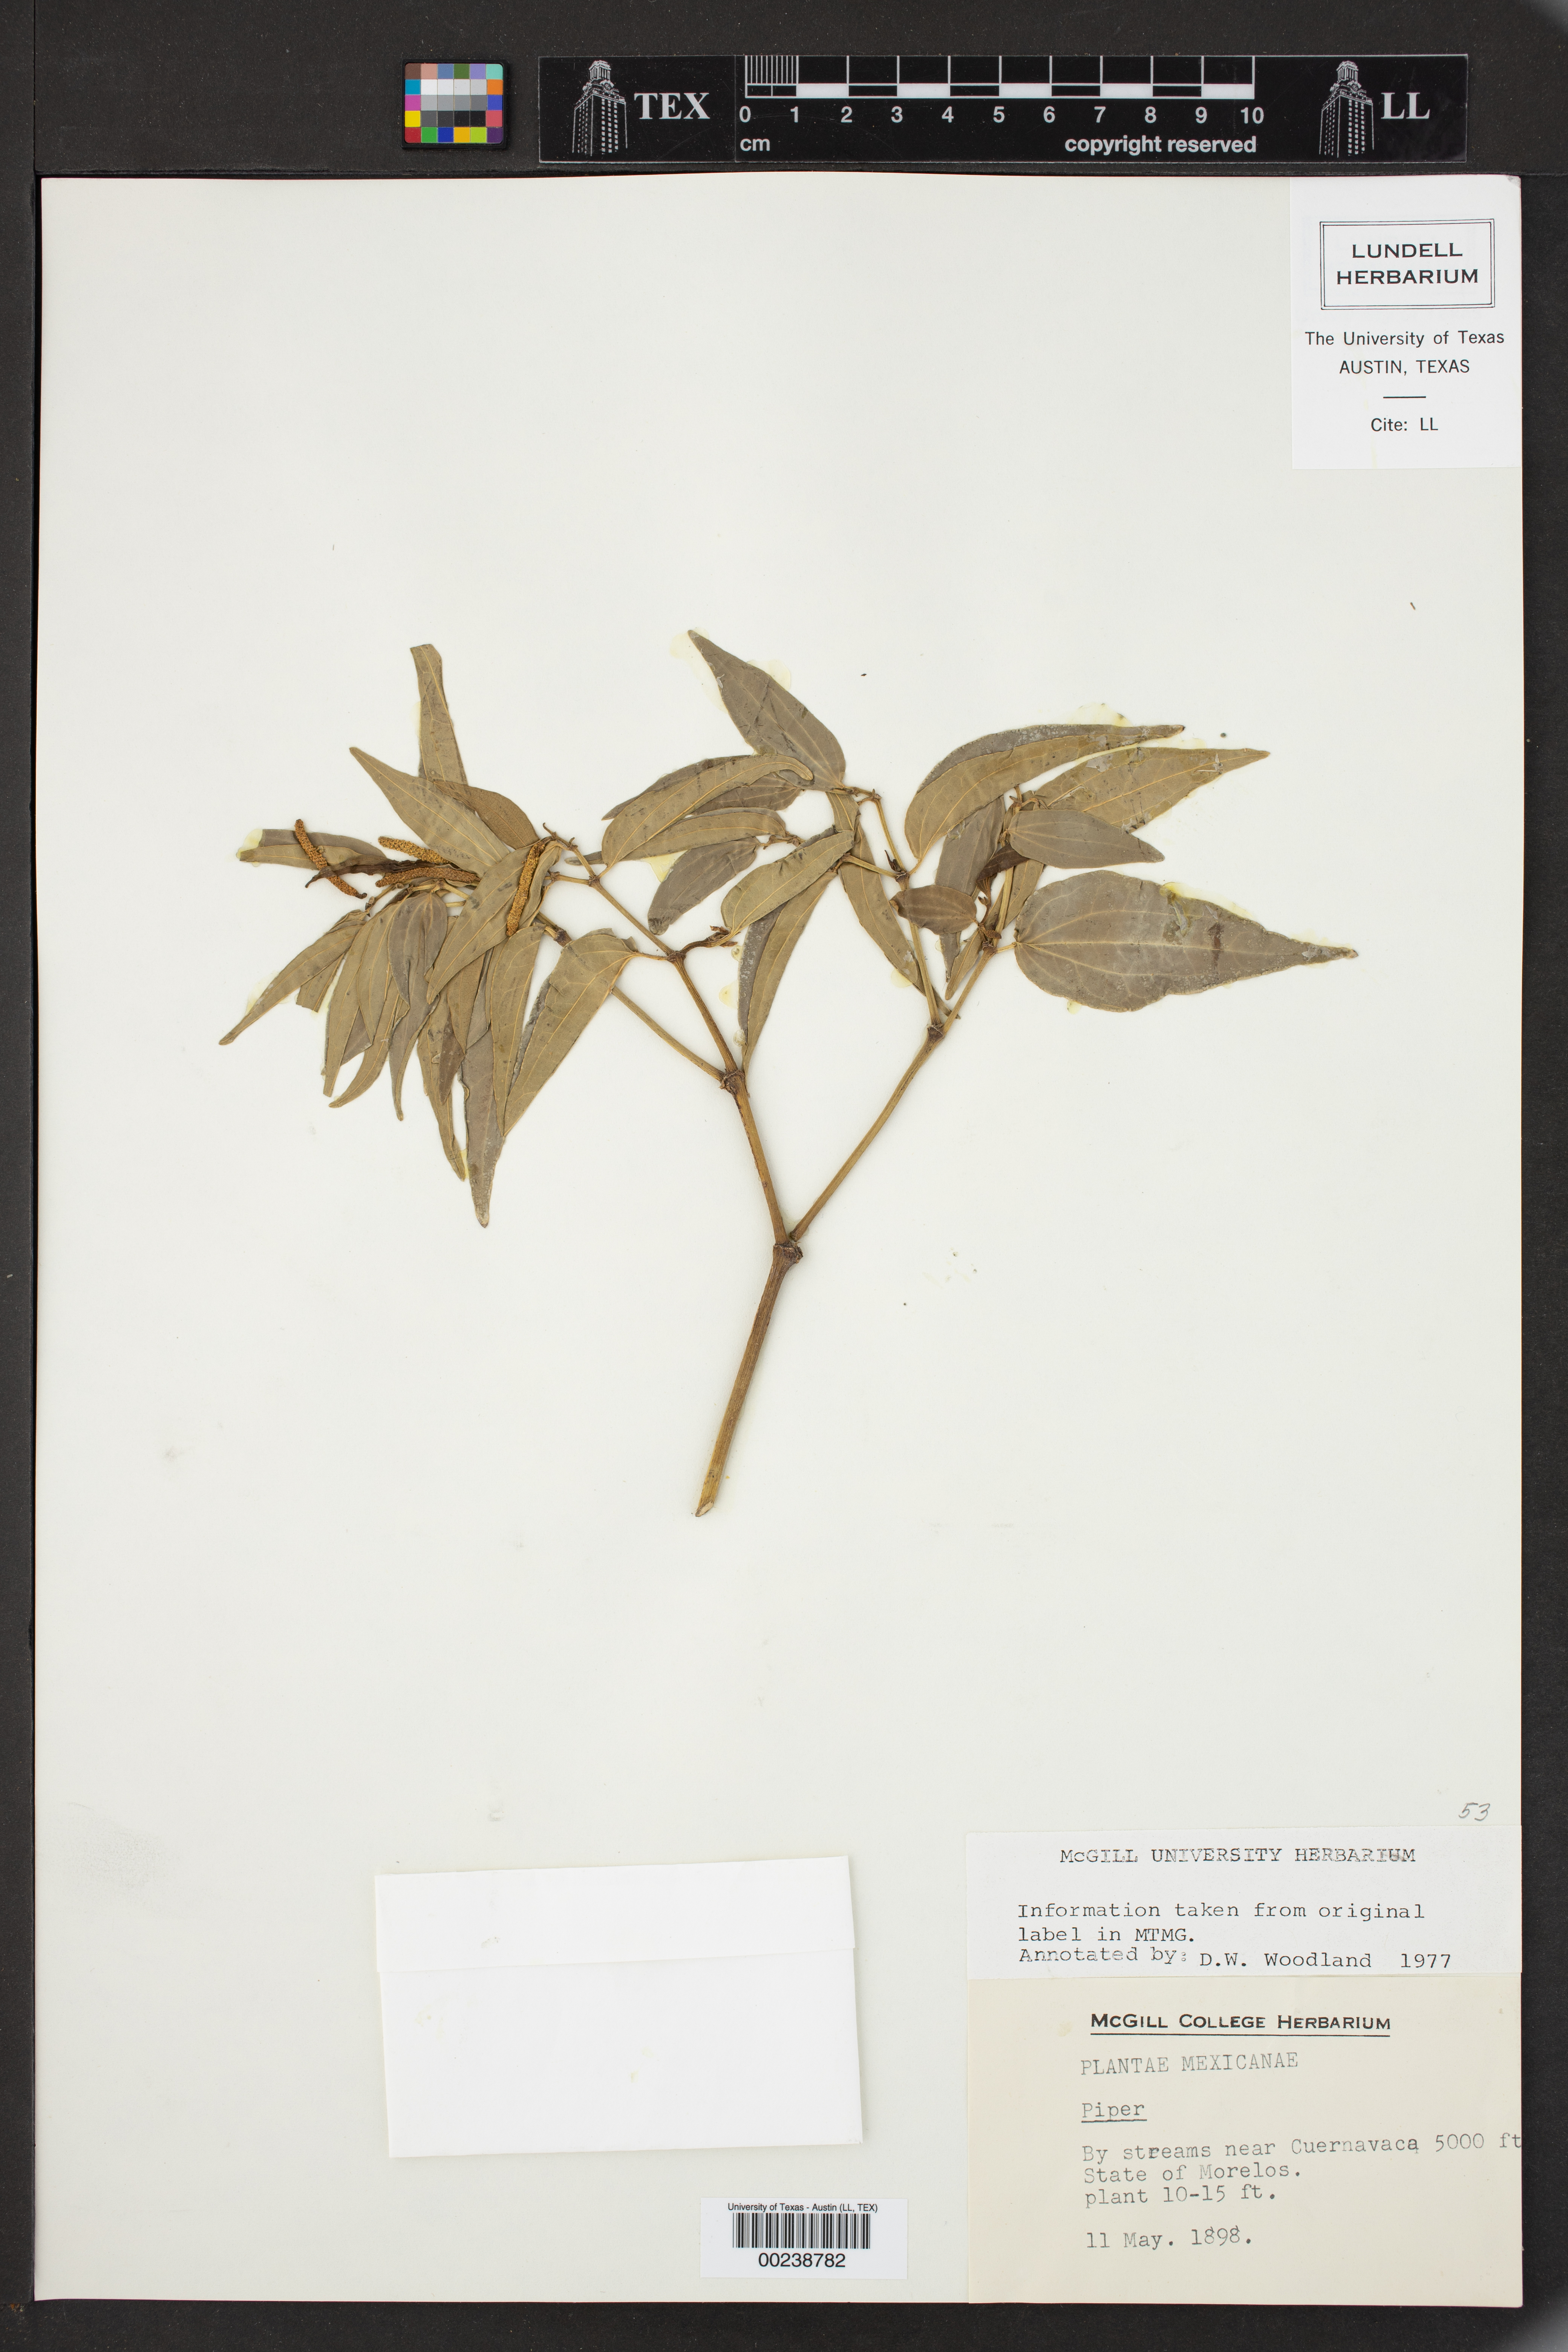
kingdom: Plantae
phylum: Tracheophyta
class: Magnoliopsida
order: Piperales
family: Piperaceae
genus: Piper
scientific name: Piper
